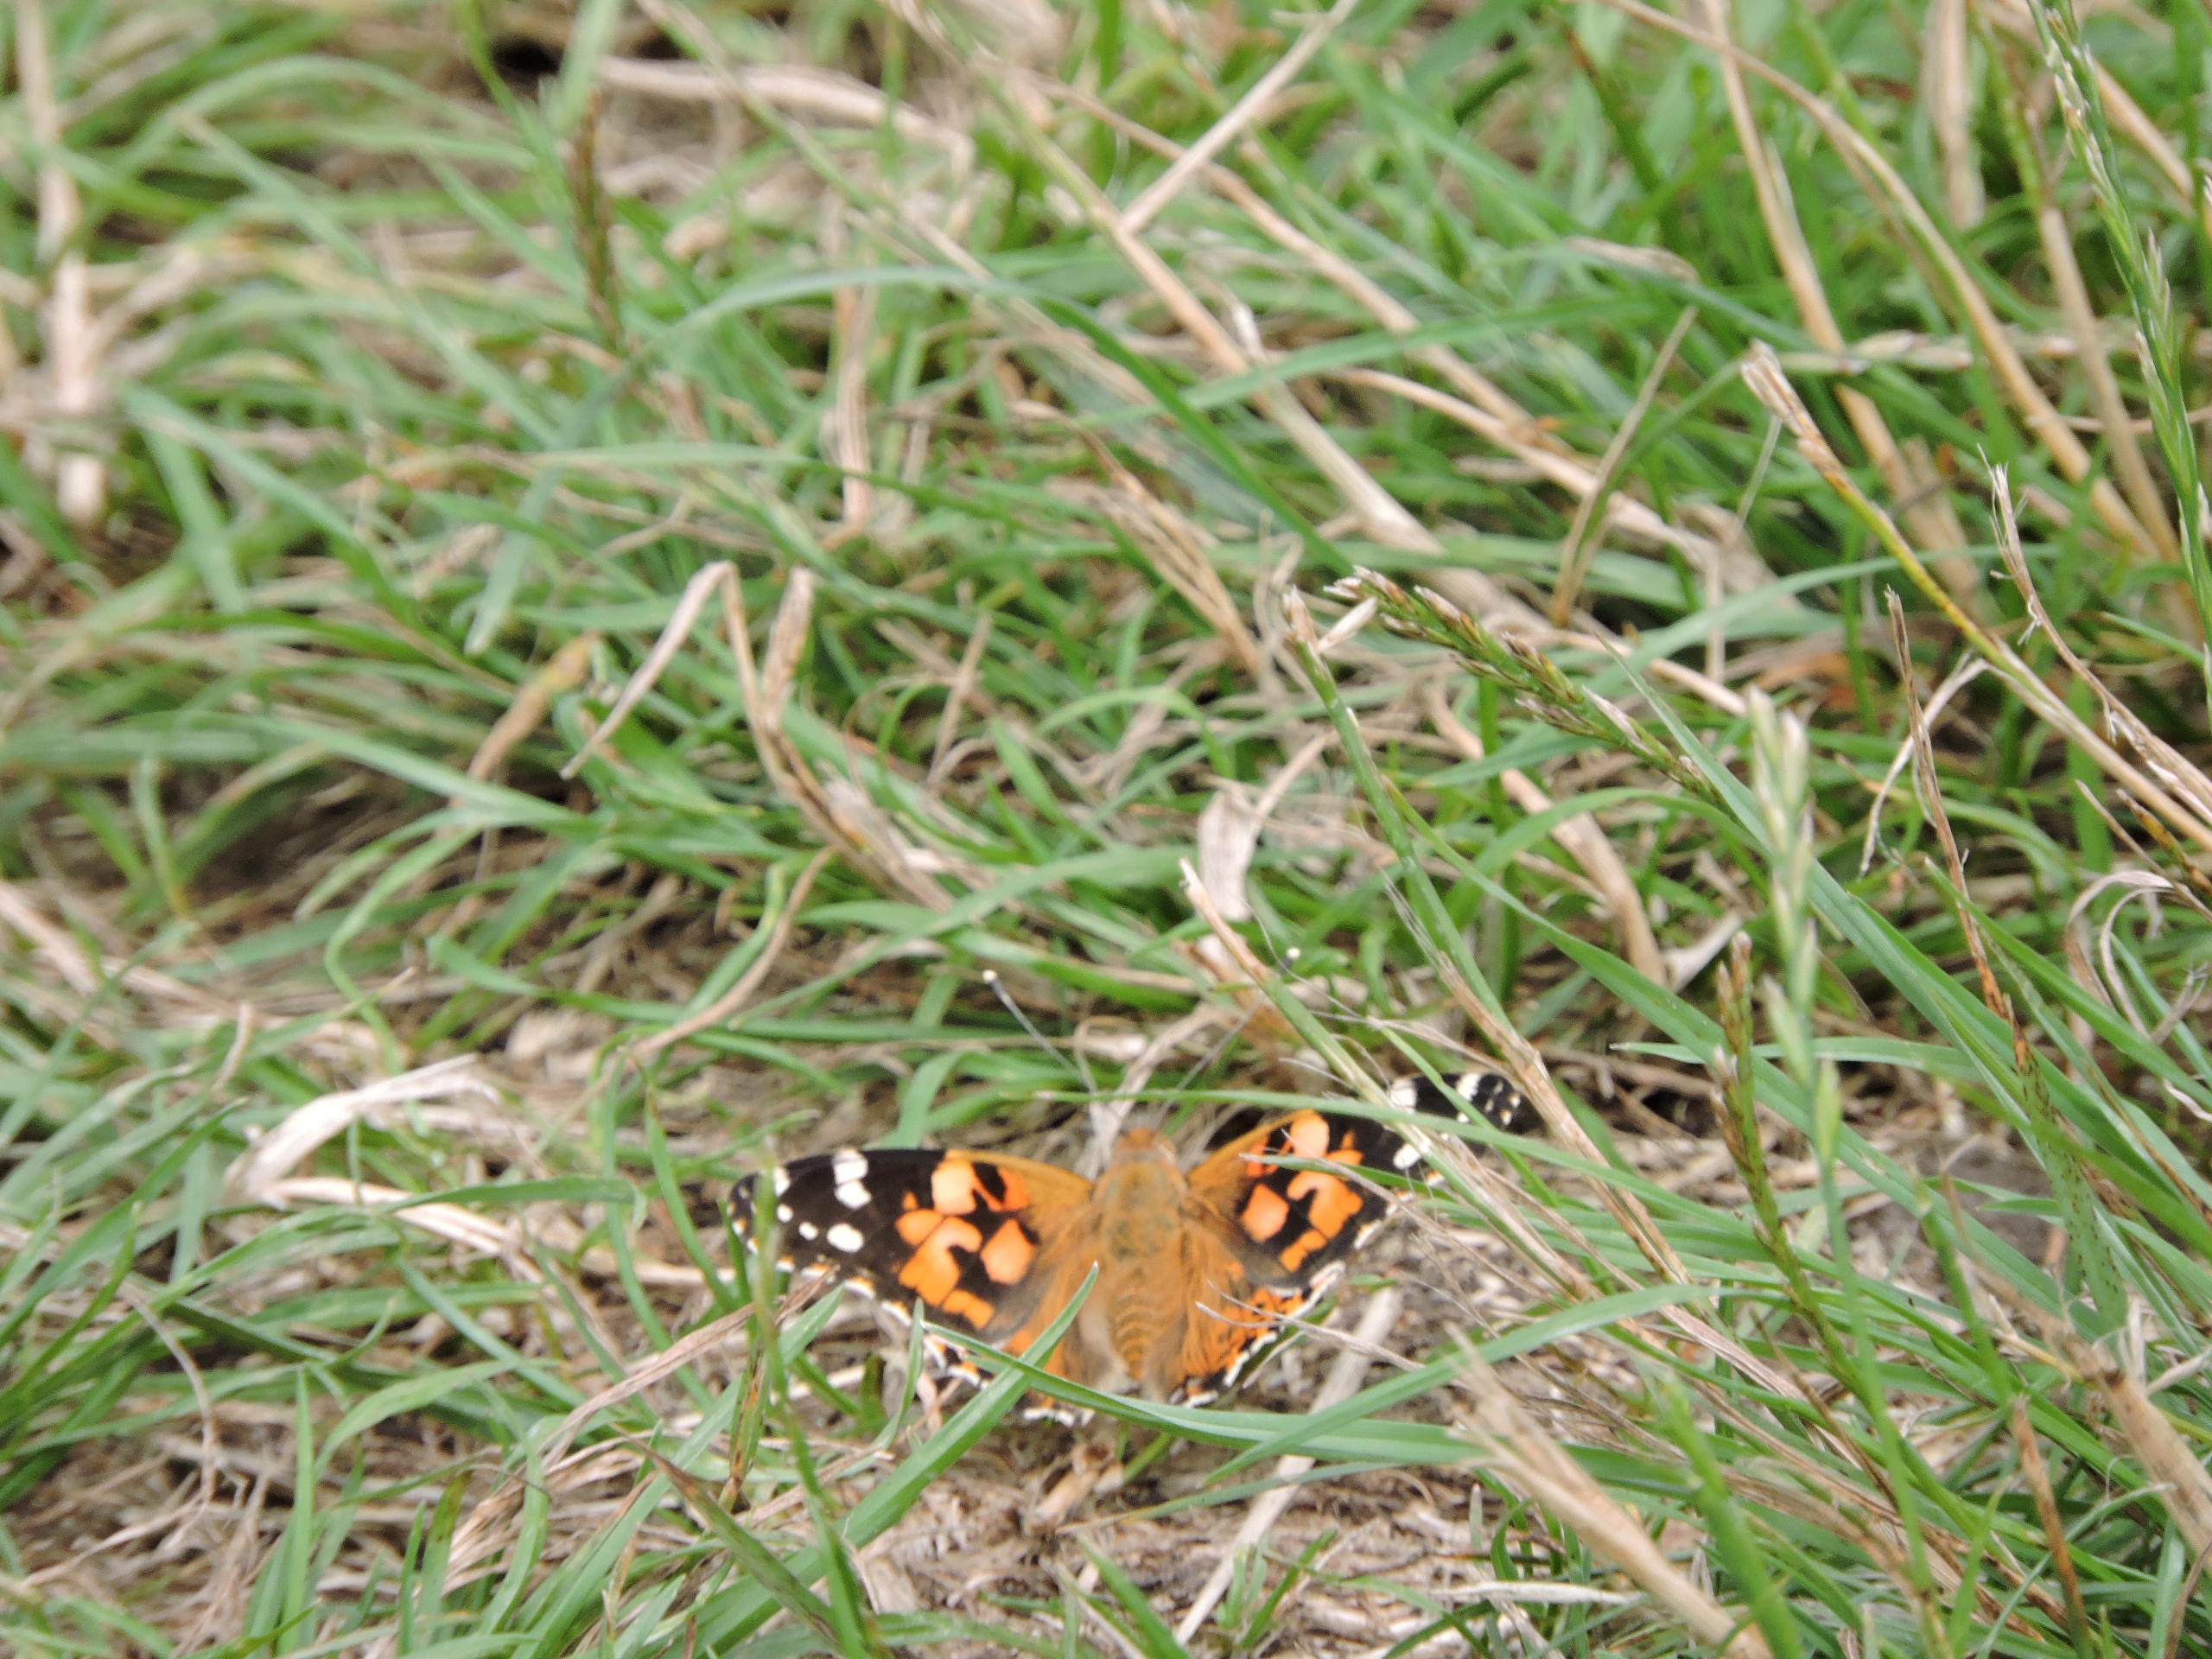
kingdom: Animalia
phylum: Arthropoda
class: Insecta
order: Lepidoptera
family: Nymphalidae
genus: Vanessa
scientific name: Vanessa cardui
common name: Tidselsommerfugl
